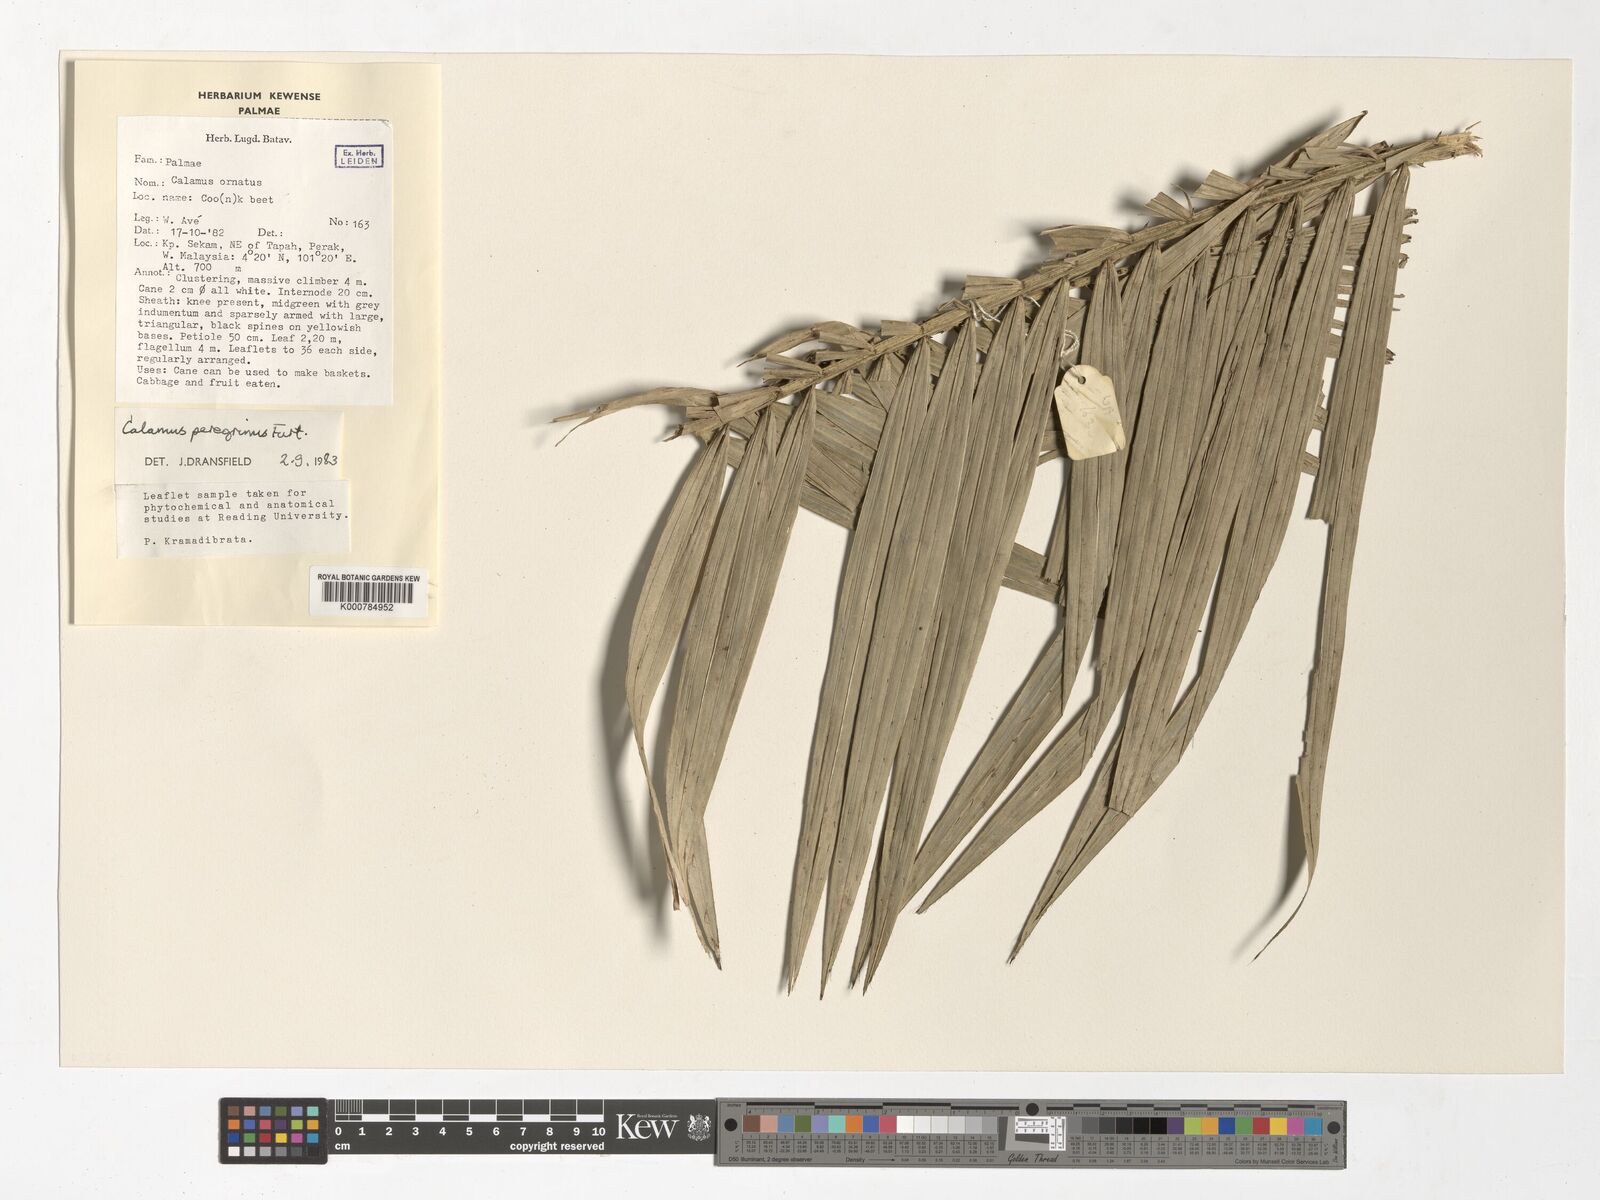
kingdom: Plantae
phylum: Tracheophyta
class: Liliopsida
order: Arecales
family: Arecaceae
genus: Calamus
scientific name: Calamus peregrinus
